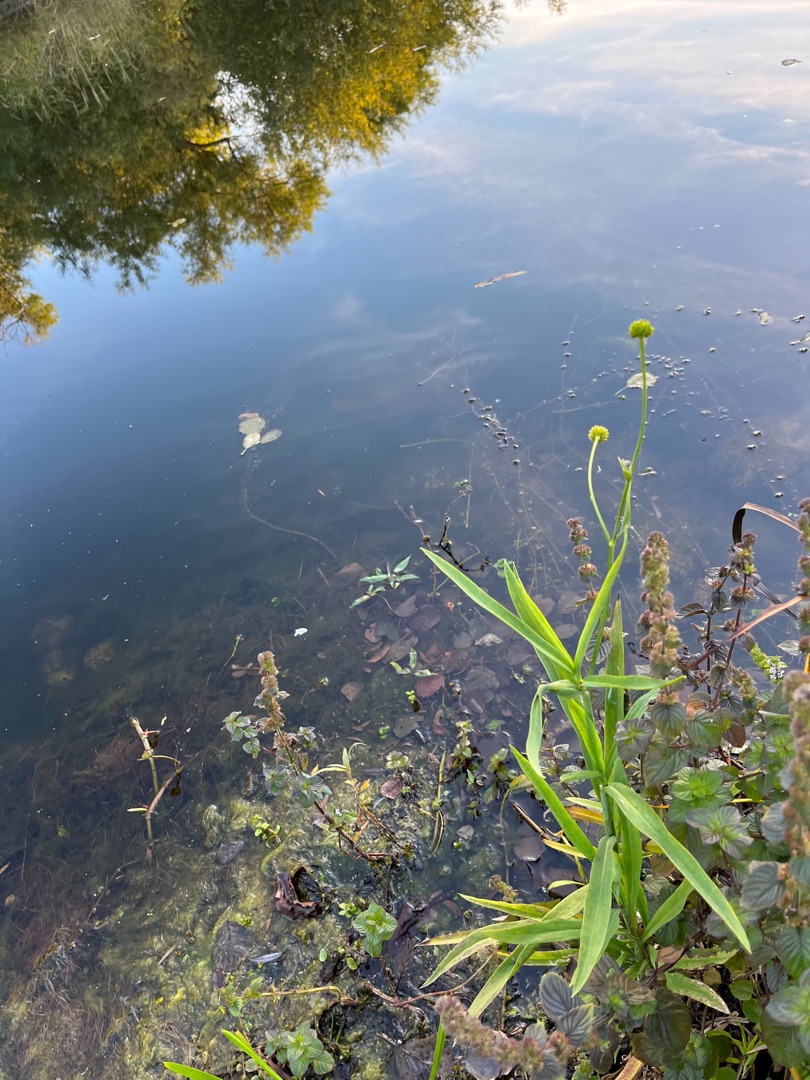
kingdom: Plantae
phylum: Tracheophyta
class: Magnoliopsida
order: Ranunculales
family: Ranunculaceae
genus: Ranunculus
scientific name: Ranunculus lingua
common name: Langbladet ranunkel
